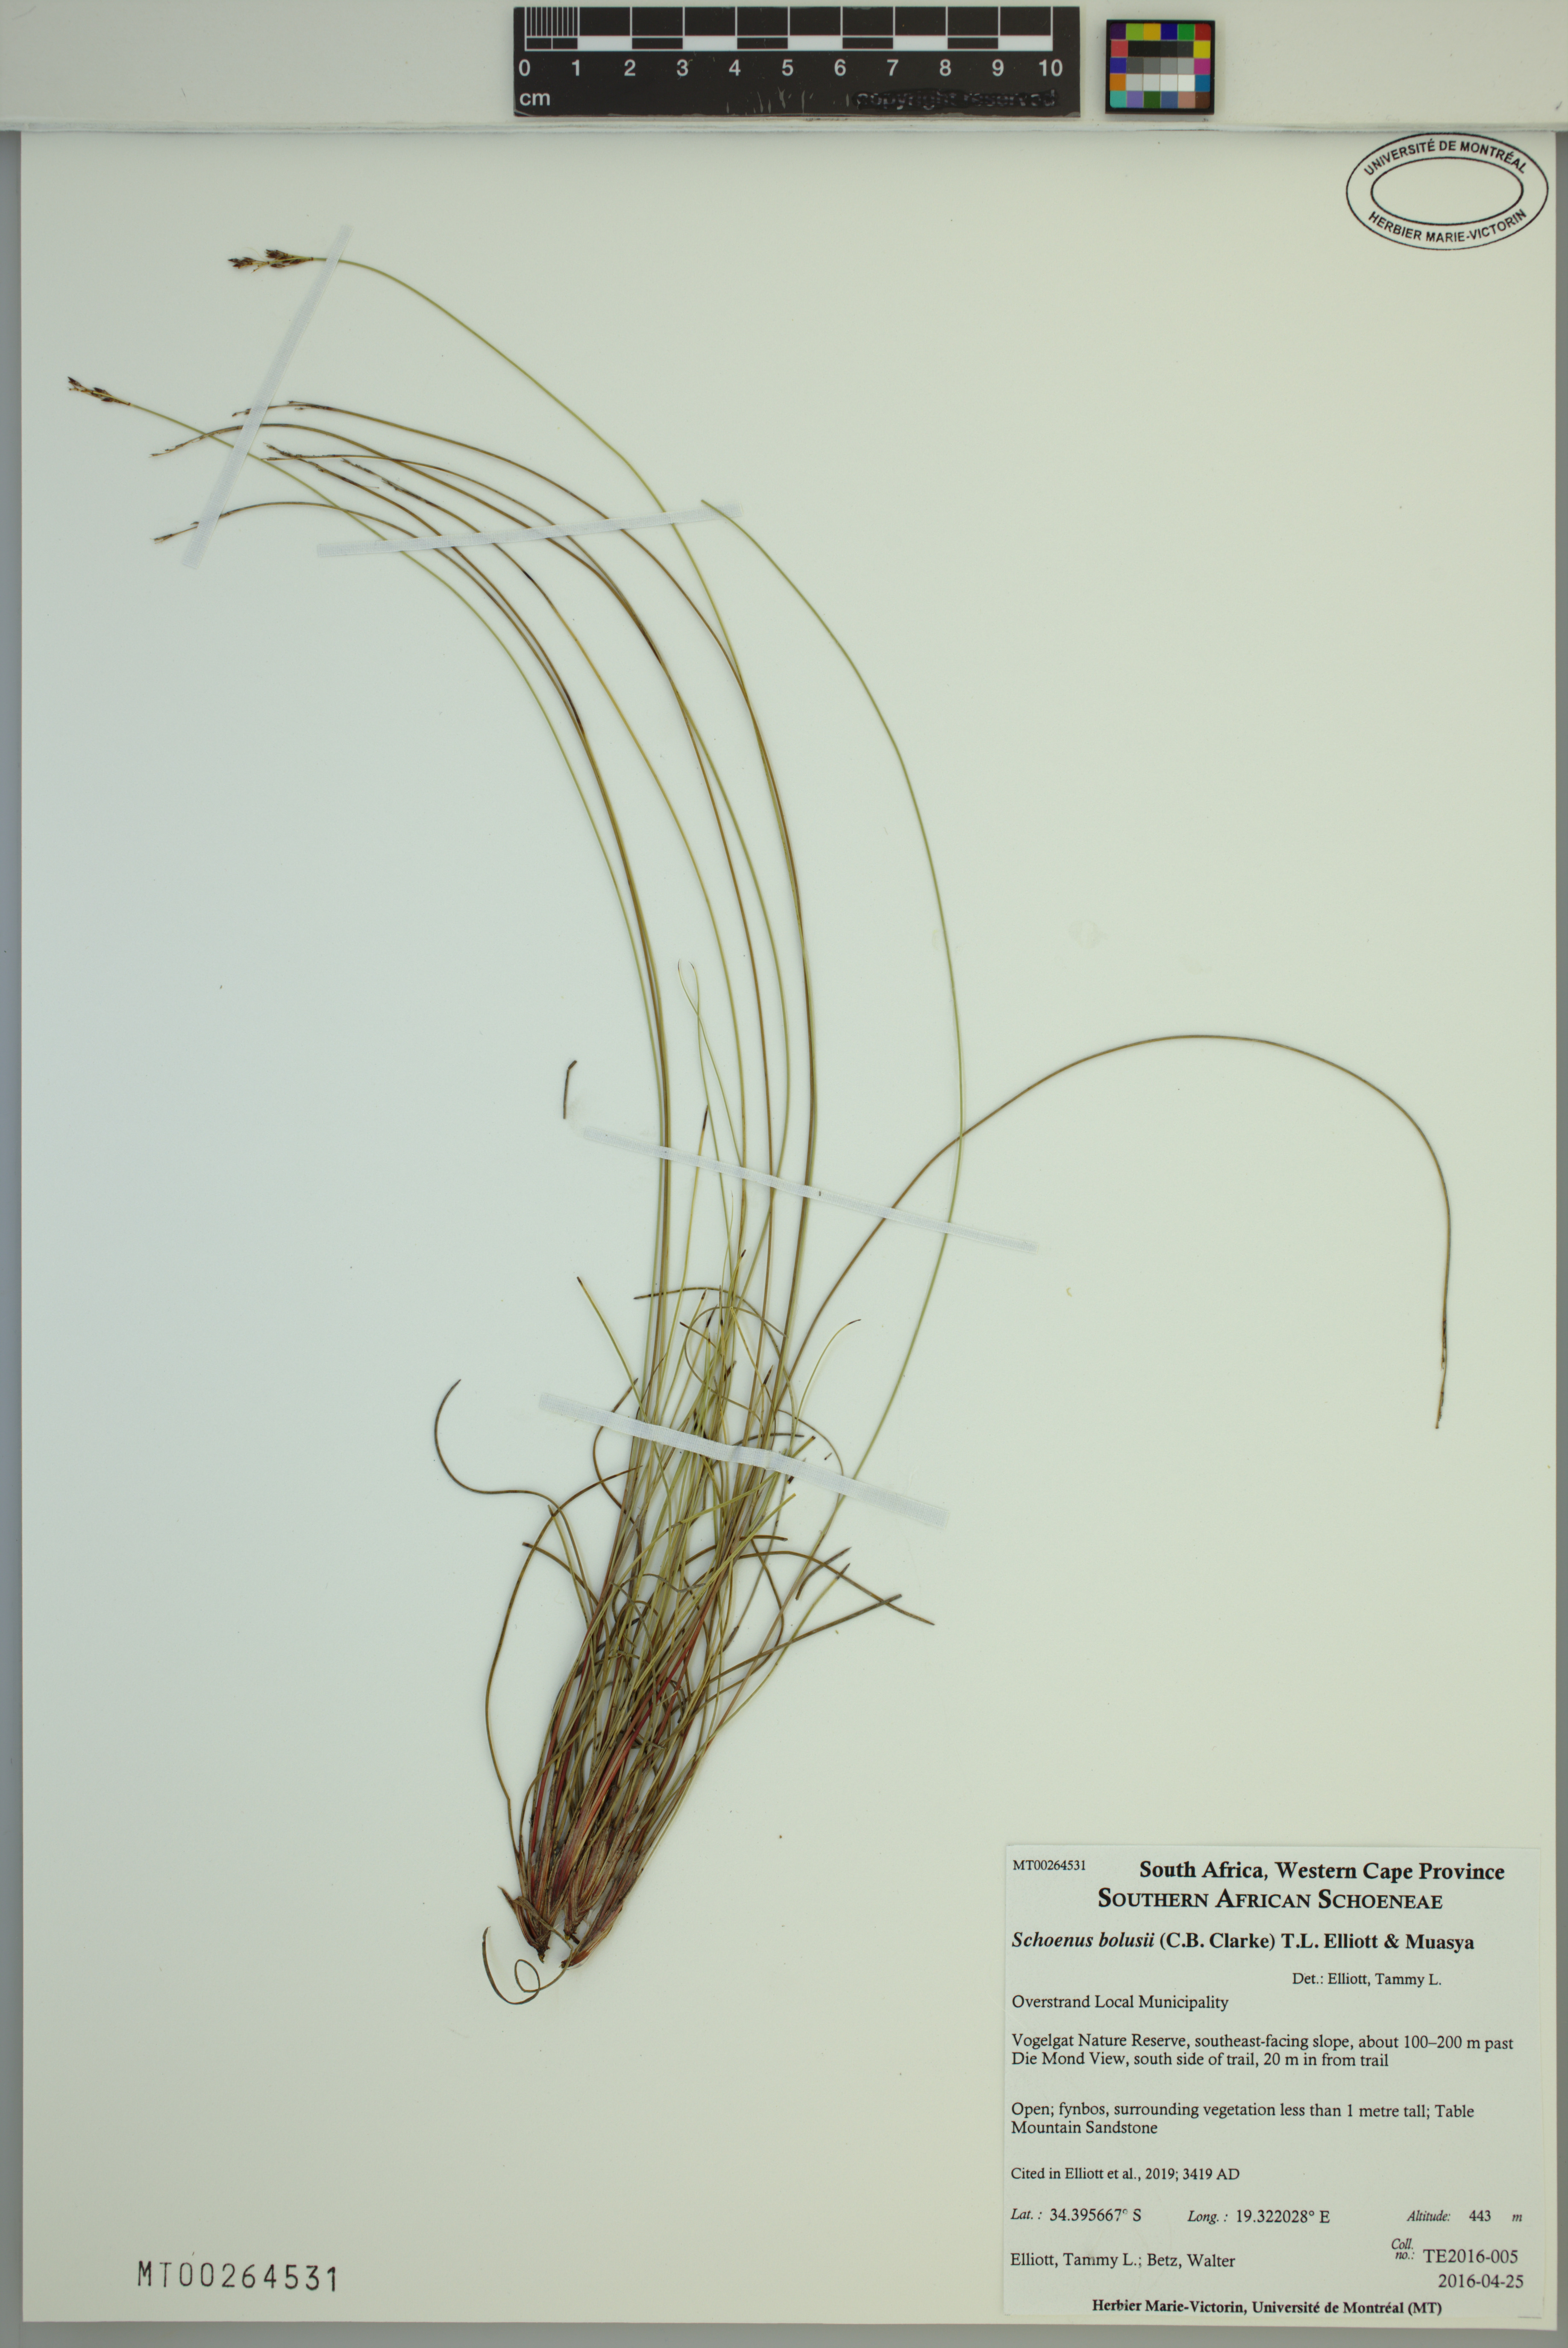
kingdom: Plantae
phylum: Tracheophyta
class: Liliopsida
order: Poales
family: Cyperaceae
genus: Schoenus
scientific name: Schoenus bolusii
